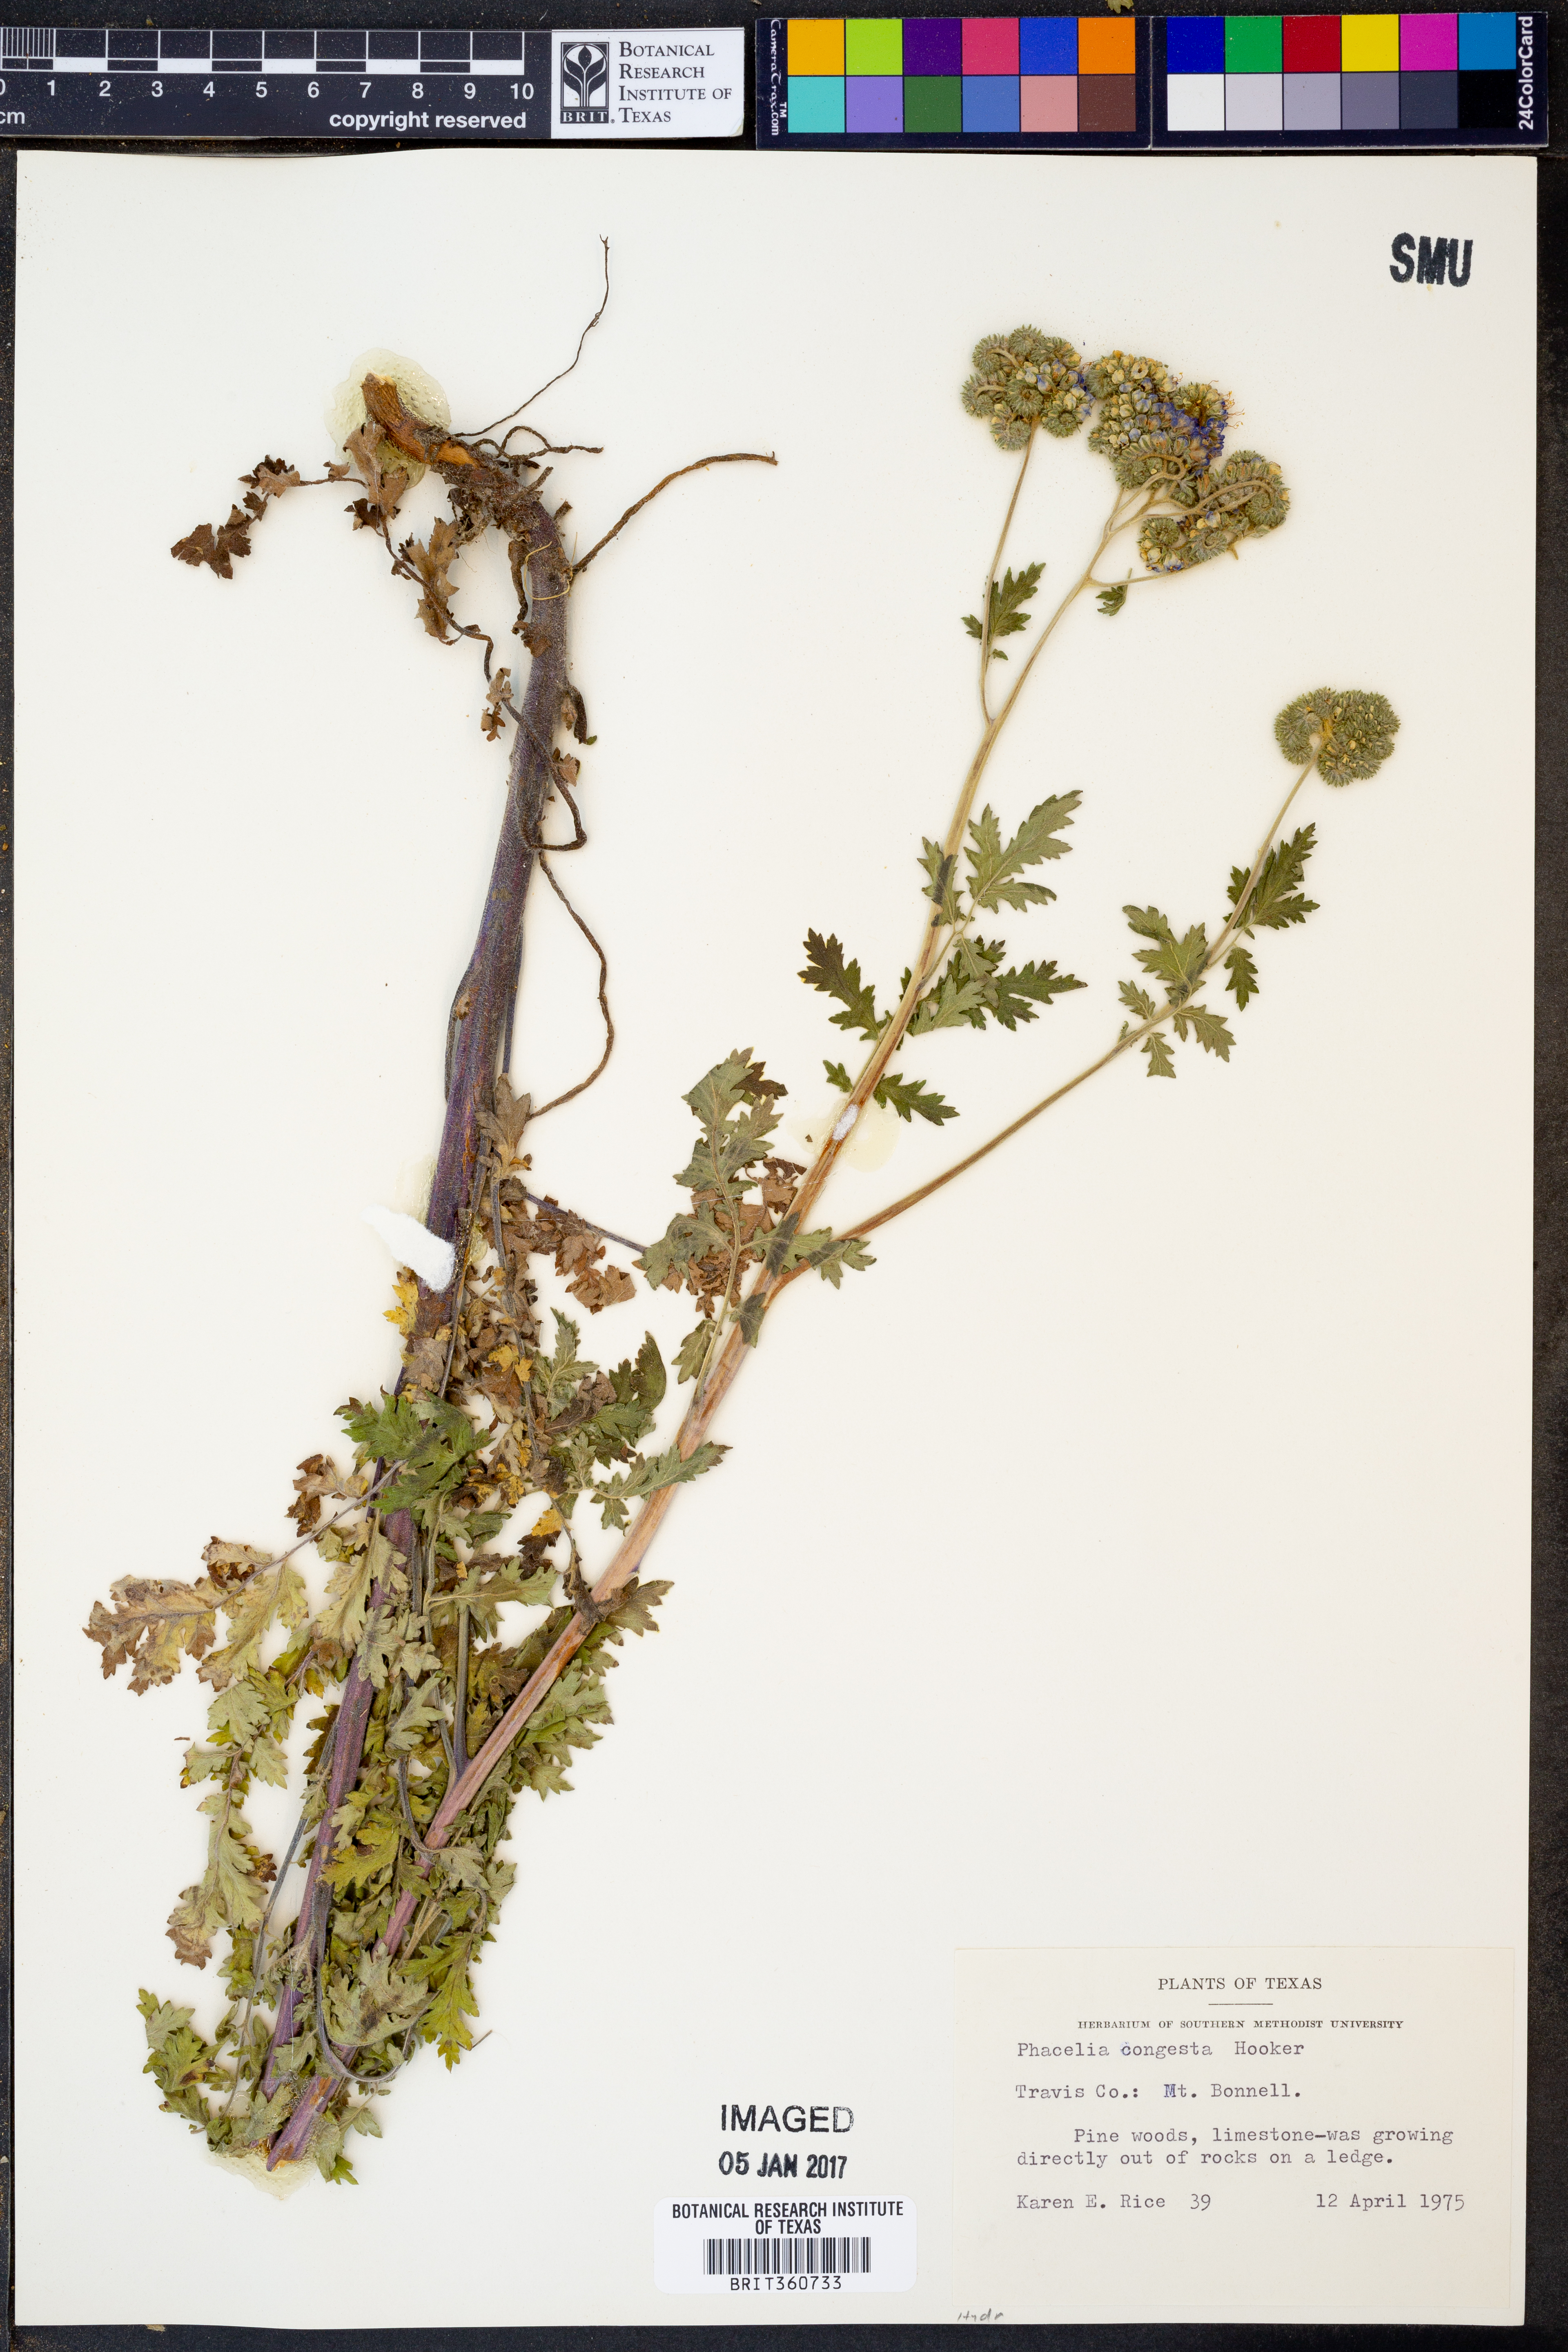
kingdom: Plantae
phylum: Tracheophyta
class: Magnoliopsida
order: Boraginales
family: Hydrophyllaceae
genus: Phacelia
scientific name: Phacelia congesta
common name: Blue curls
